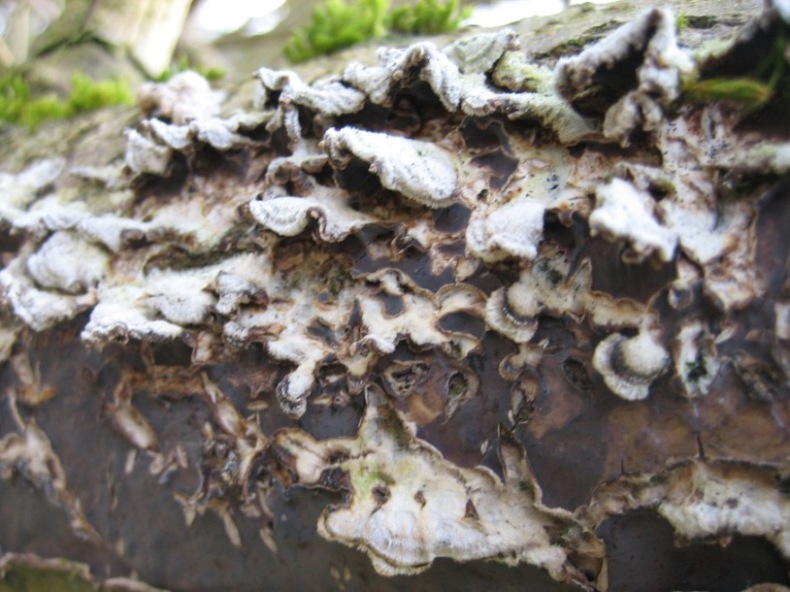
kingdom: Fungi
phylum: Basidiomycota
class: Agaricomycetes
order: Agaricales
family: Cyphellaceae
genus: Chondrostereum
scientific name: Chondrostereum purpureum
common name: purpurlædersvamp
